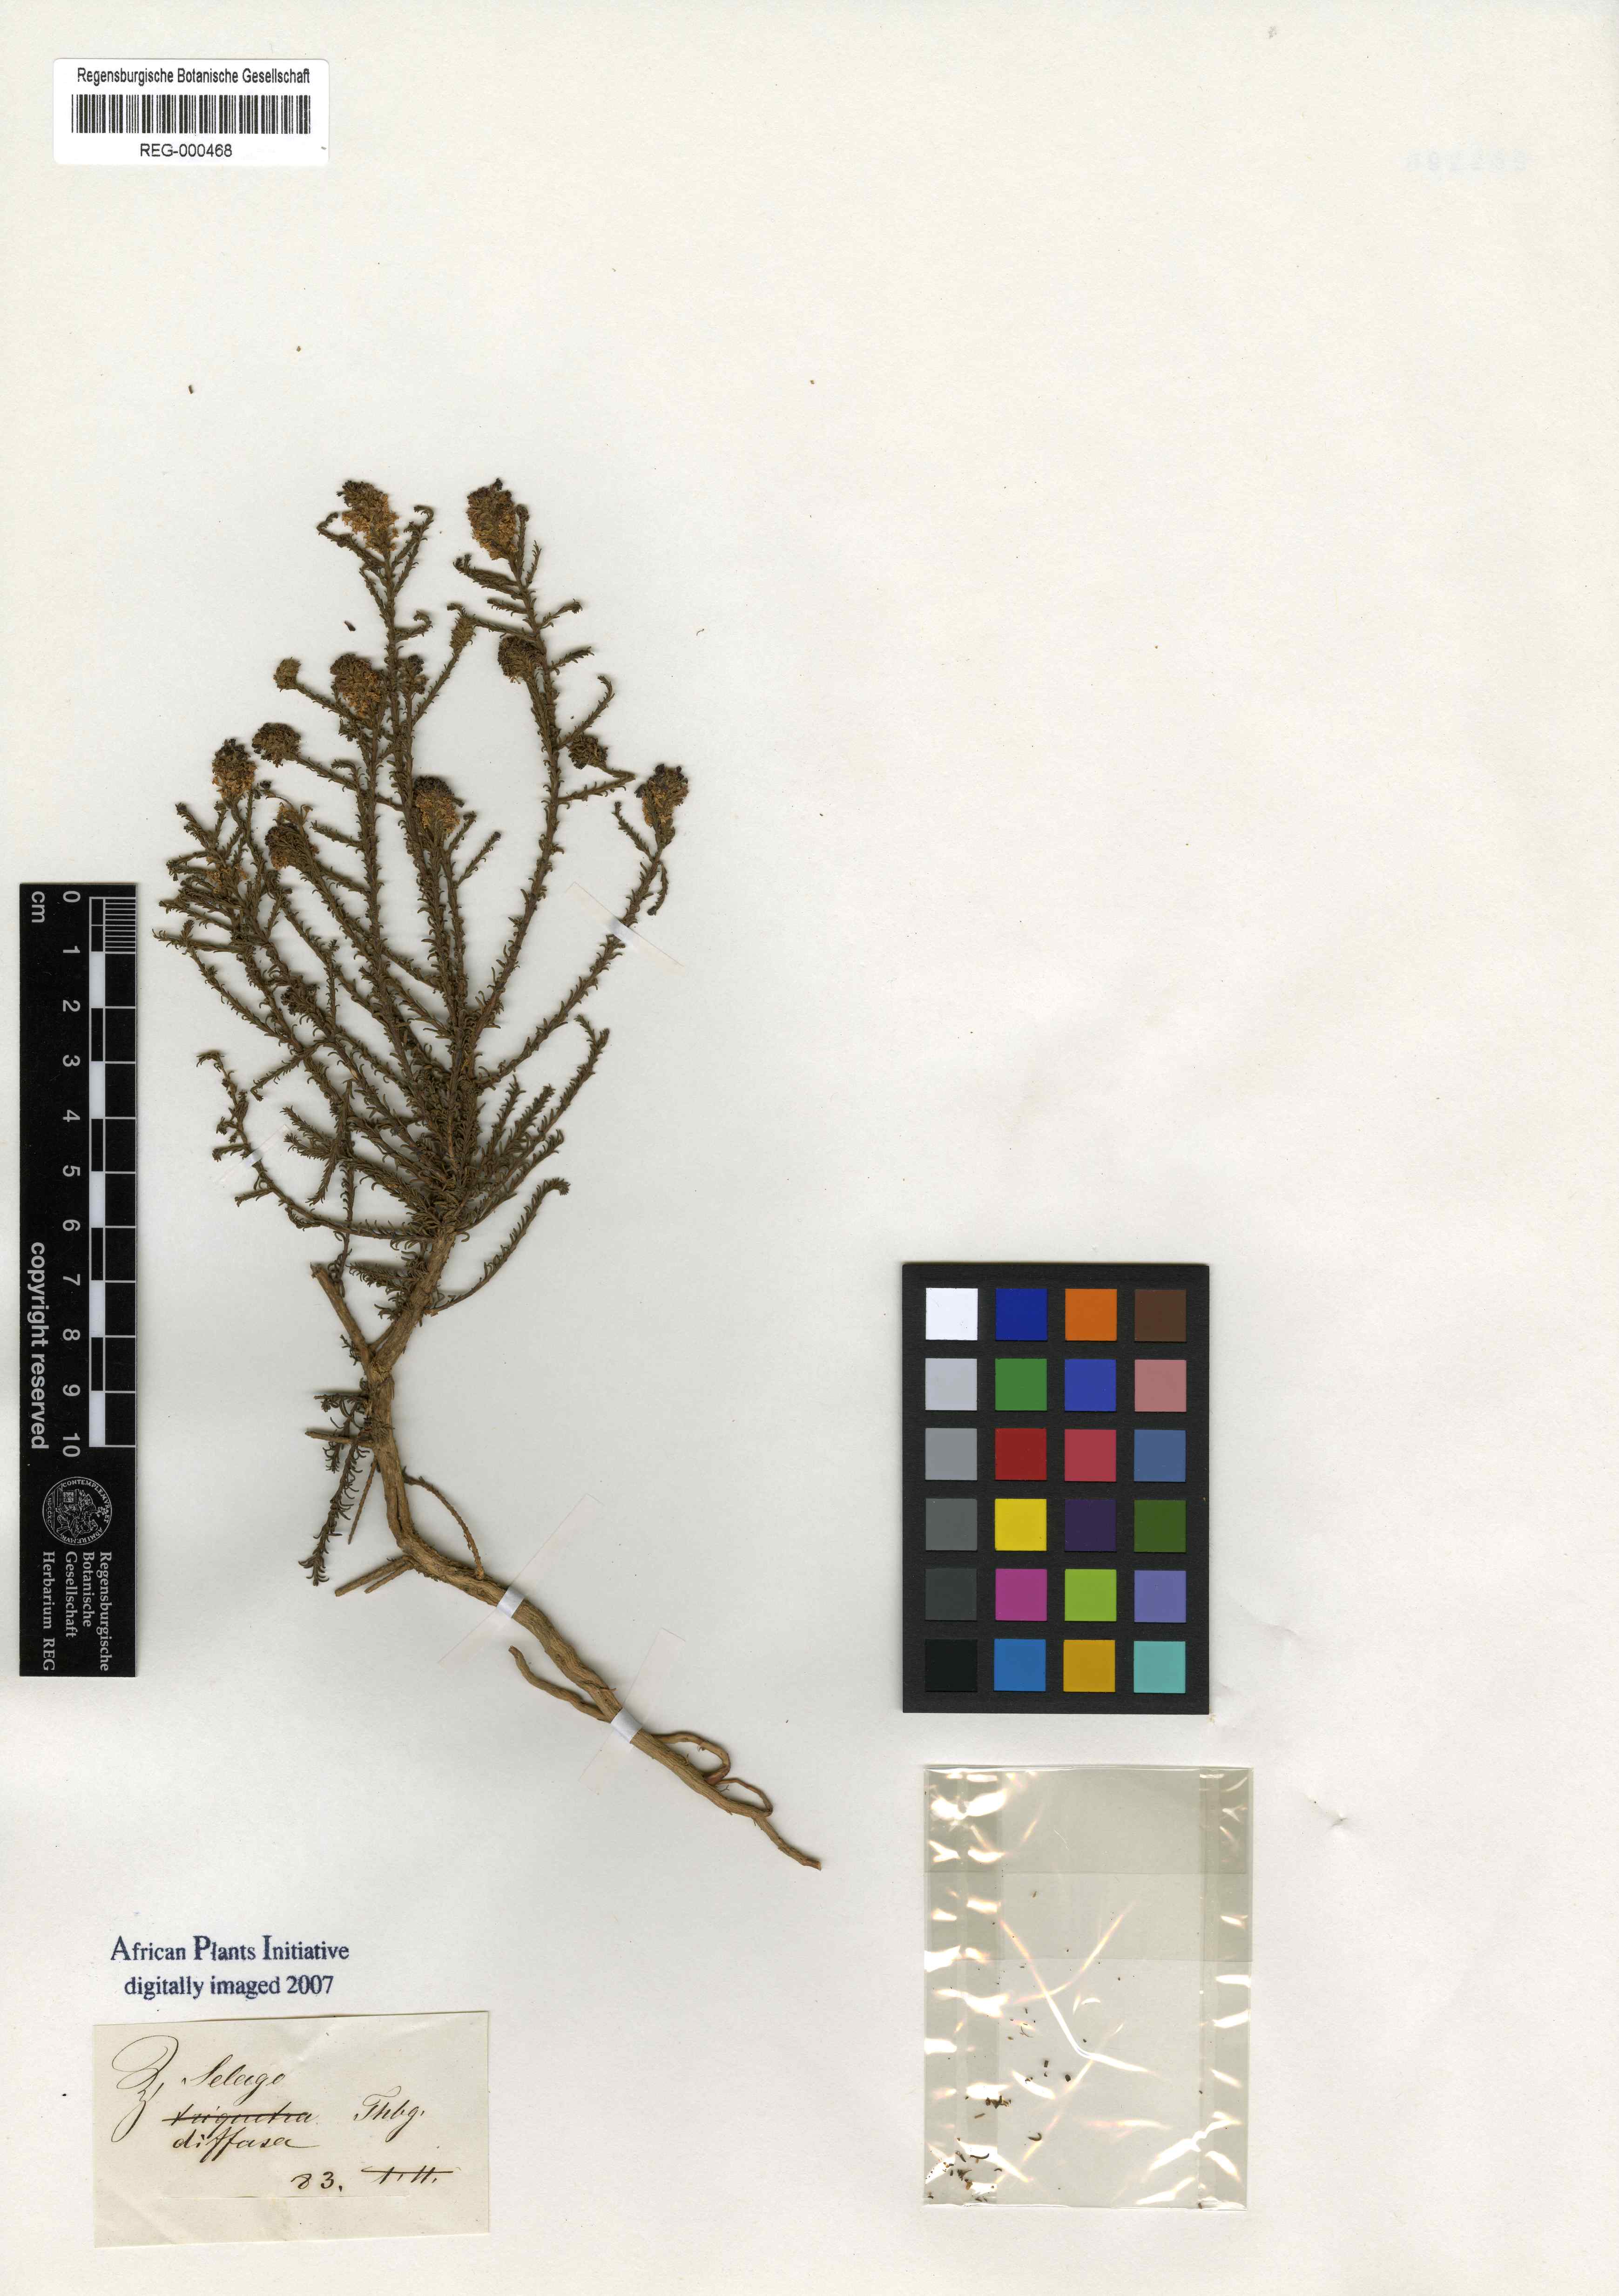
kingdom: Plantae
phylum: Tracheophyta
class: Magnoliopsida
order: Lamiales
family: Scrophulariaceae
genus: Selago
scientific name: Selago diffusa
